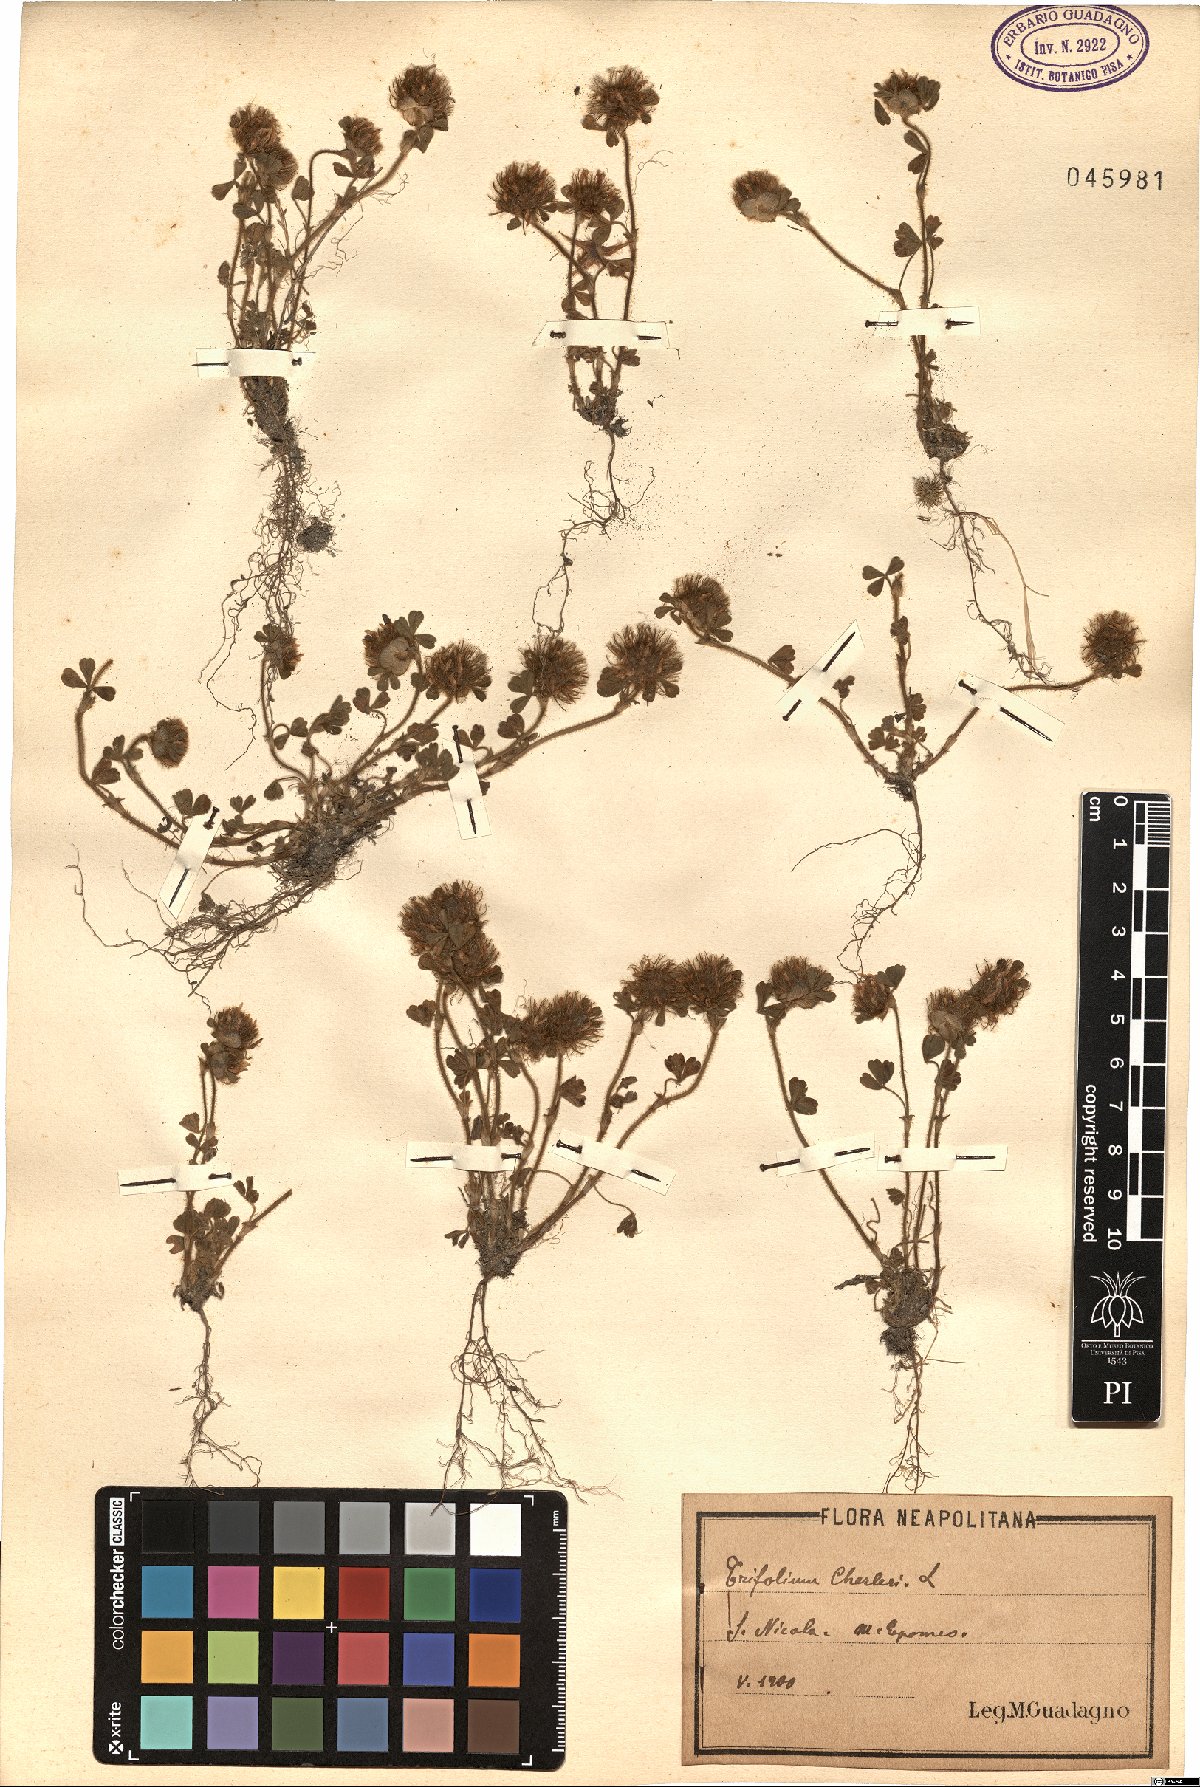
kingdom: Plantae
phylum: Tracheophyta
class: Magnoliopsida
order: Fabales
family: Fabaceae
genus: Trifolium
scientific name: Trifolium cherleri
